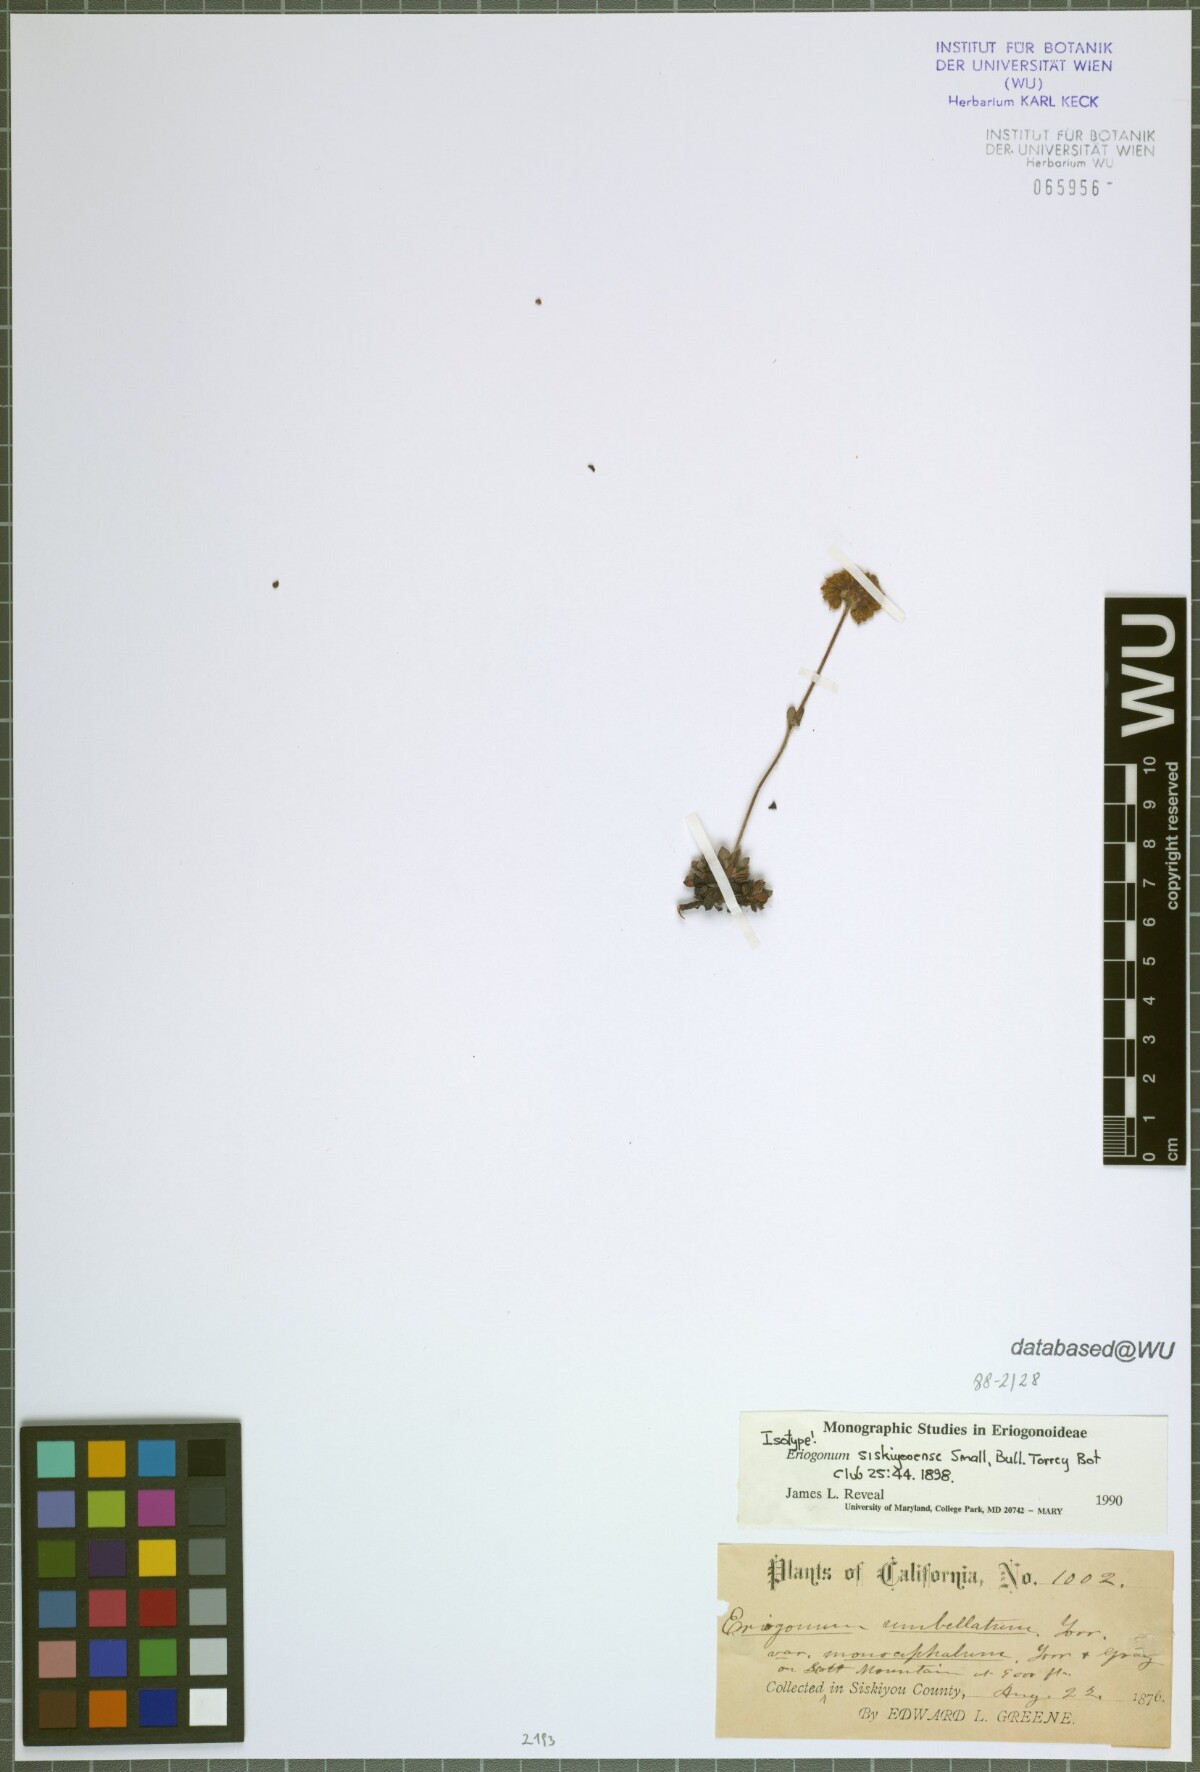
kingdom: Plantae
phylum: Tracheophyta
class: Magnoliopsida
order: Caryophyllales
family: Polygonaceae
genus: Eriogonum
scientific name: Eriogonum siskiyouense
